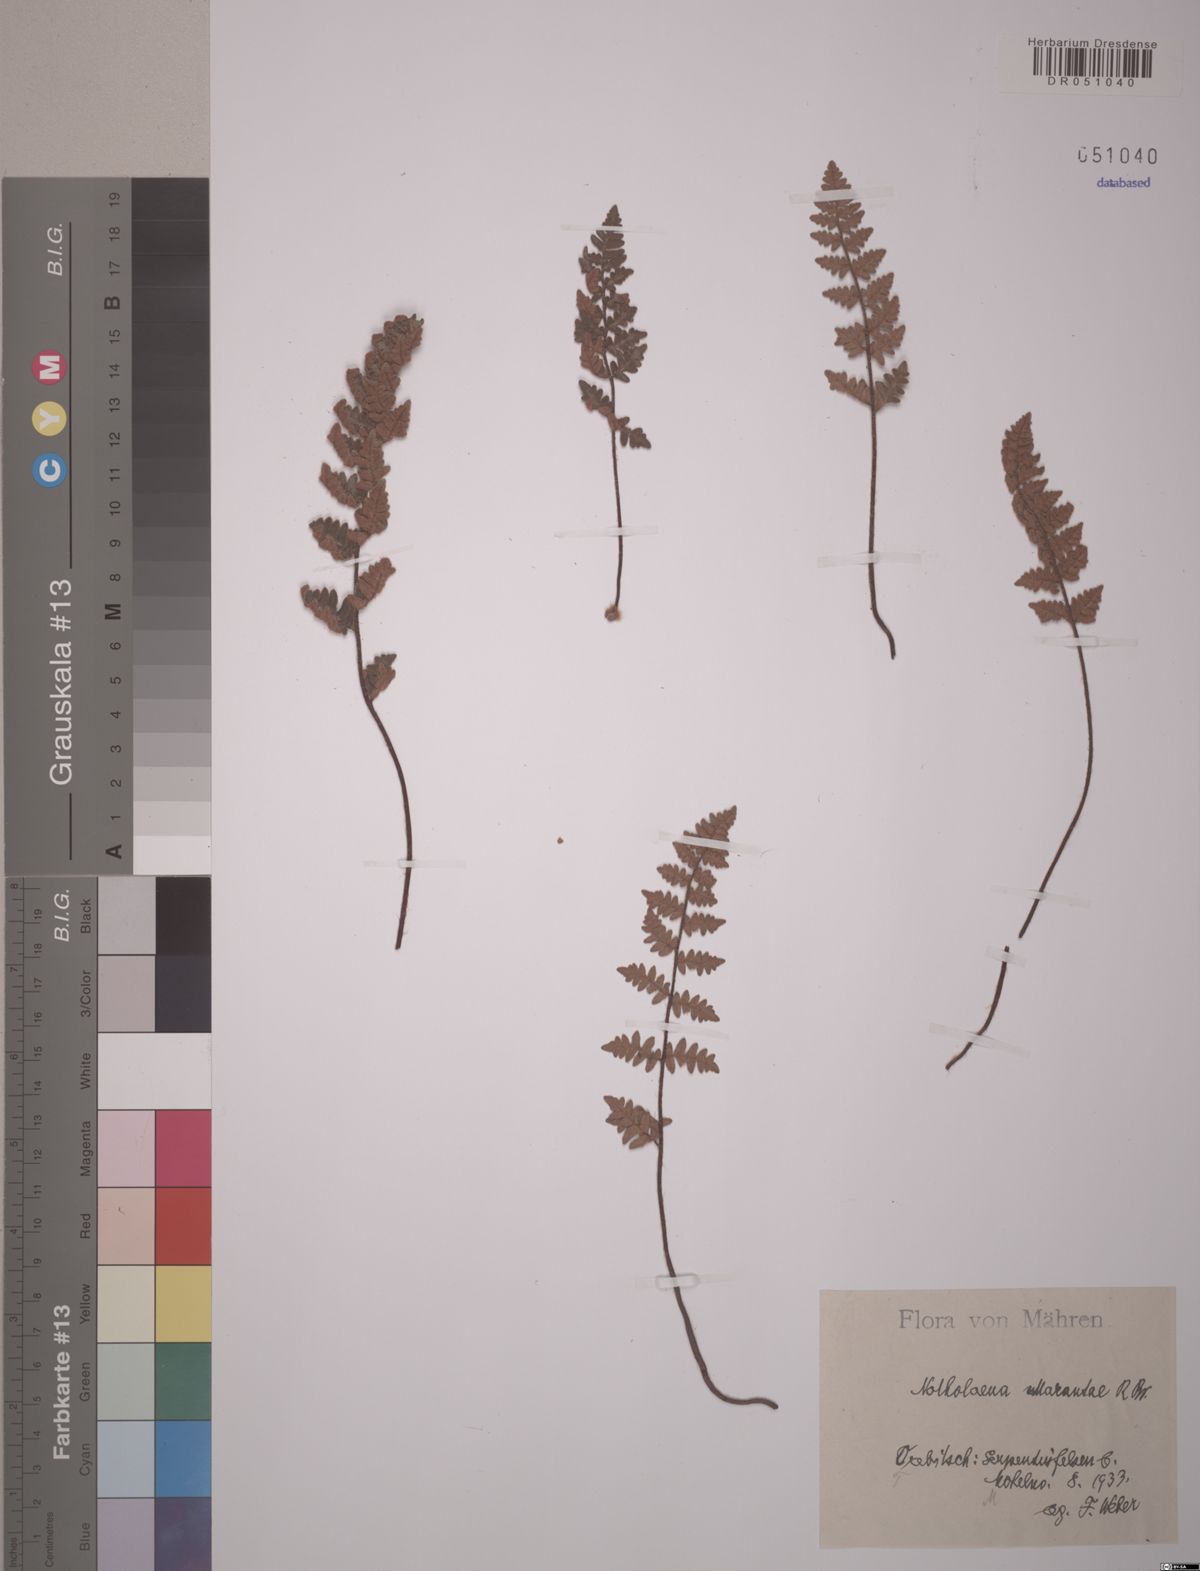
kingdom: Plantae
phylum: Tracheophyta
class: Polypodiopsida
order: Polypodiales
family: Pteridaceae
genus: Paragymnopteris
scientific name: Paragymnopteris marantae
